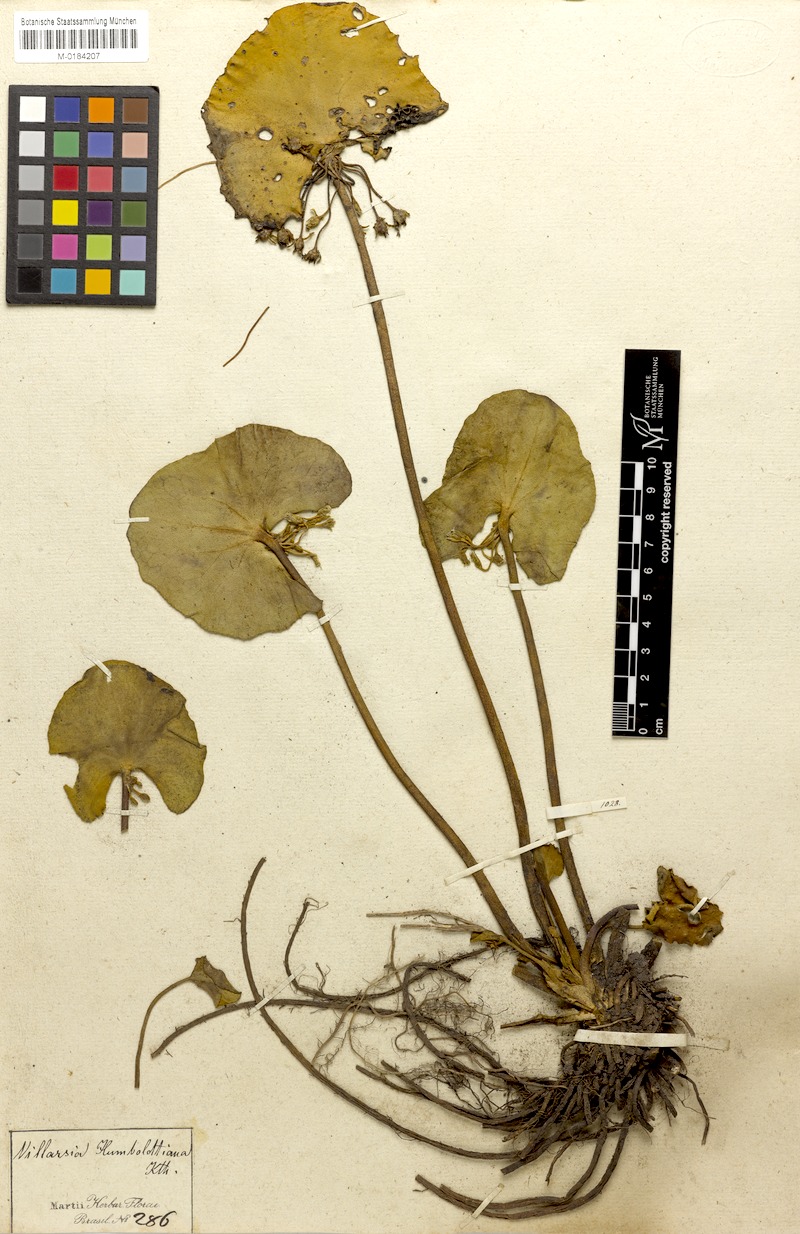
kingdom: Plantae
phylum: Tracheophyta
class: Magnoliopsida
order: Asterales
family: Menyanthaceae
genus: Nymphoides
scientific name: Nymphoides humboldtiana
